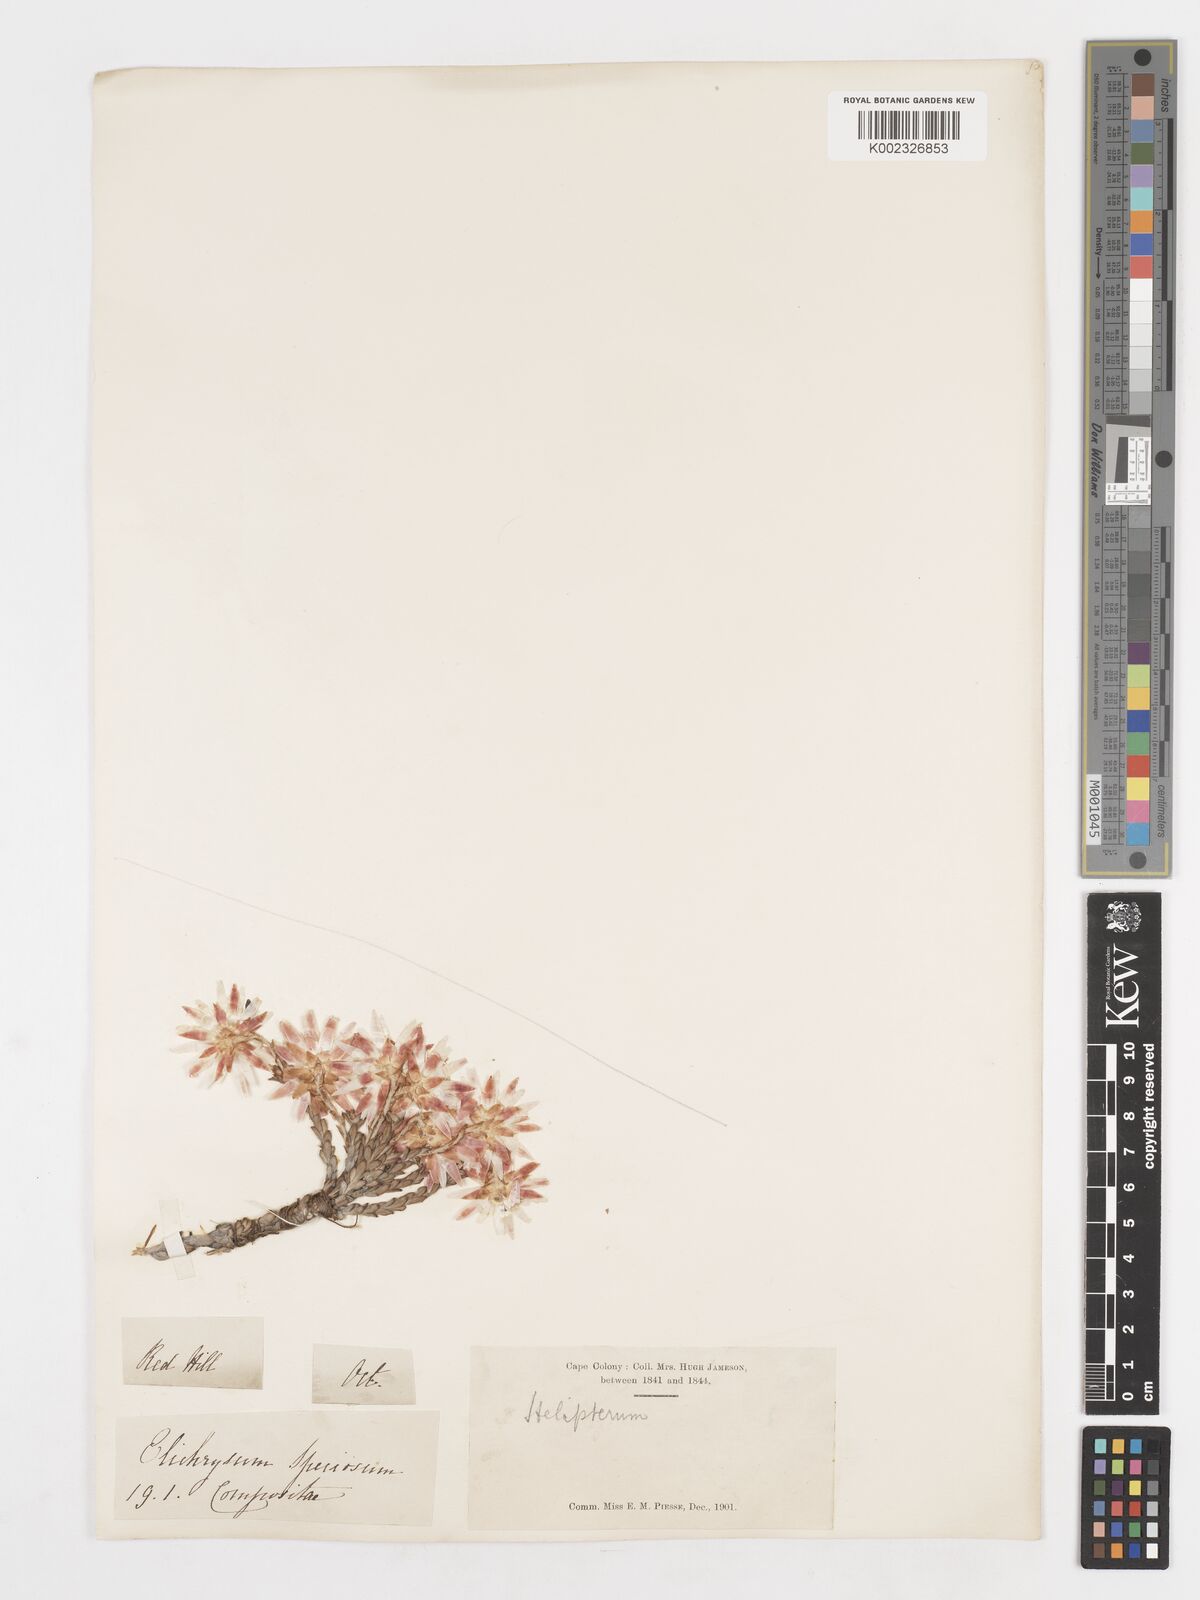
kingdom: Plantae
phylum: Tracheophyta
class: Magnoliopsida
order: Asterales
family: Asteraceae
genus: Syncarpha
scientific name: Syncarpha
